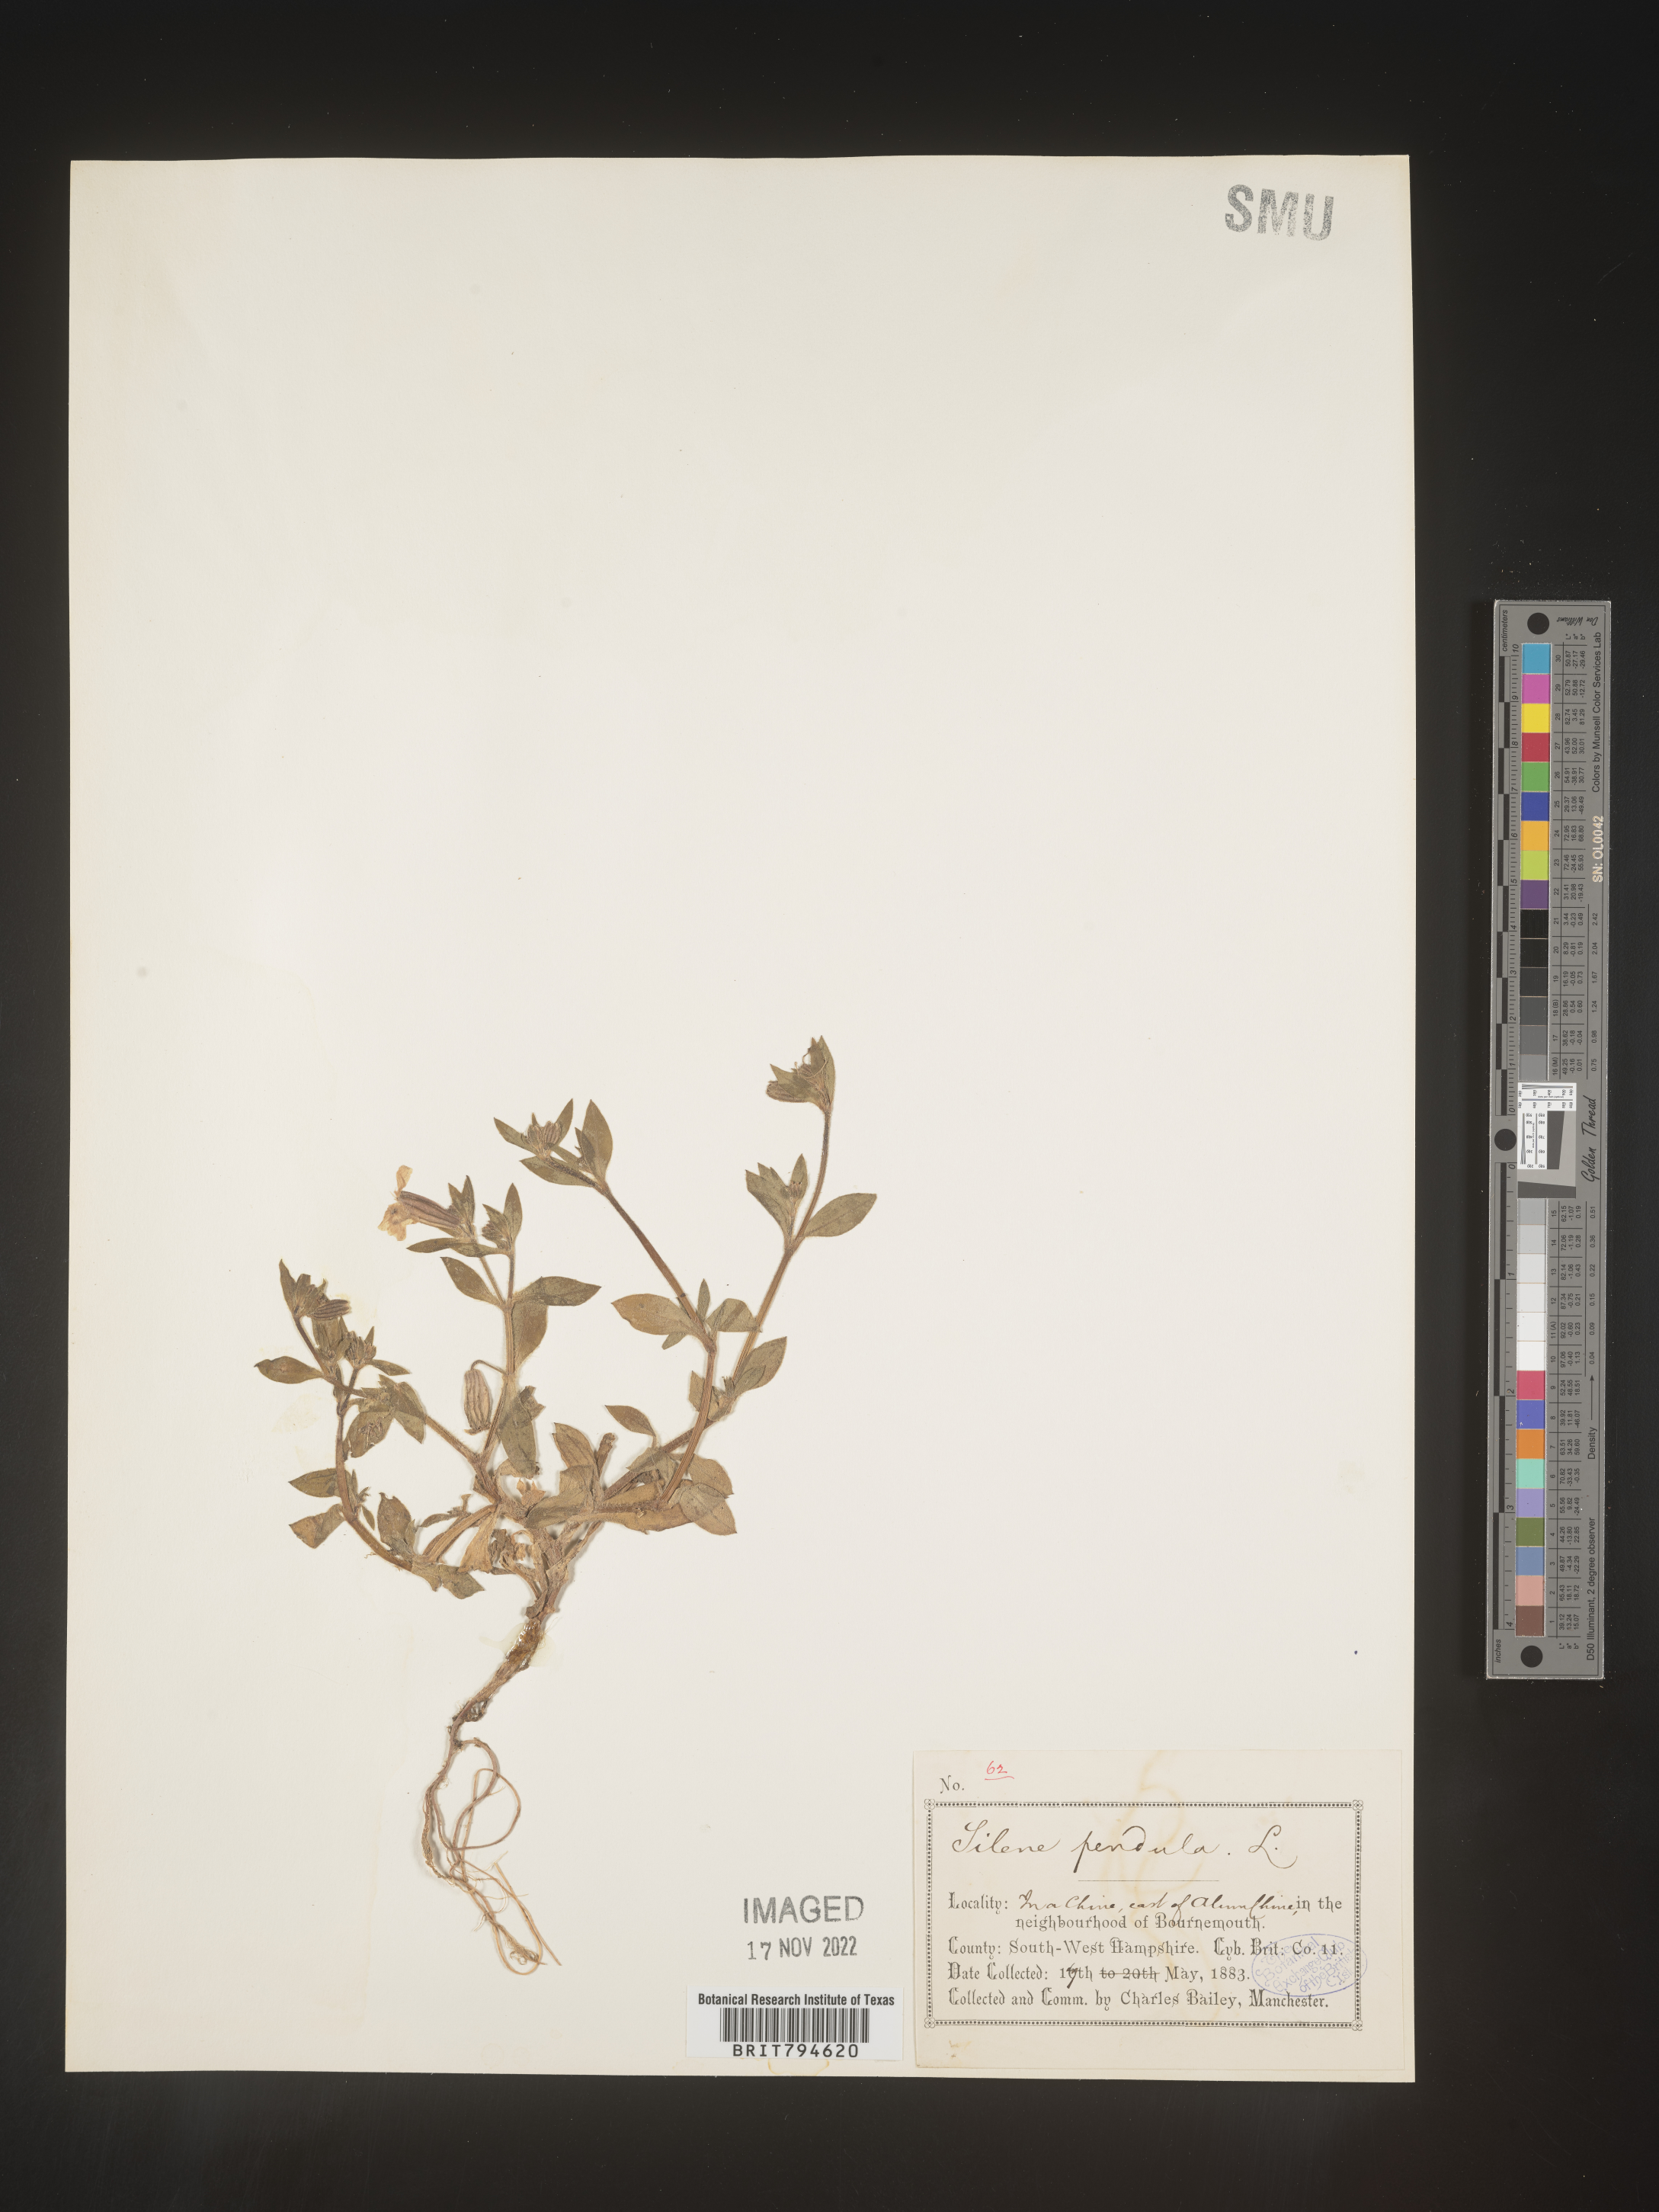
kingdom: Plantae
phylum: Tracheophyta
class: Magnoliopsida
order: Caryophyllales
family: Caryophyllaceae
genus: Silene
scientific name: Silene pendula
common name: Nodding catchfly
